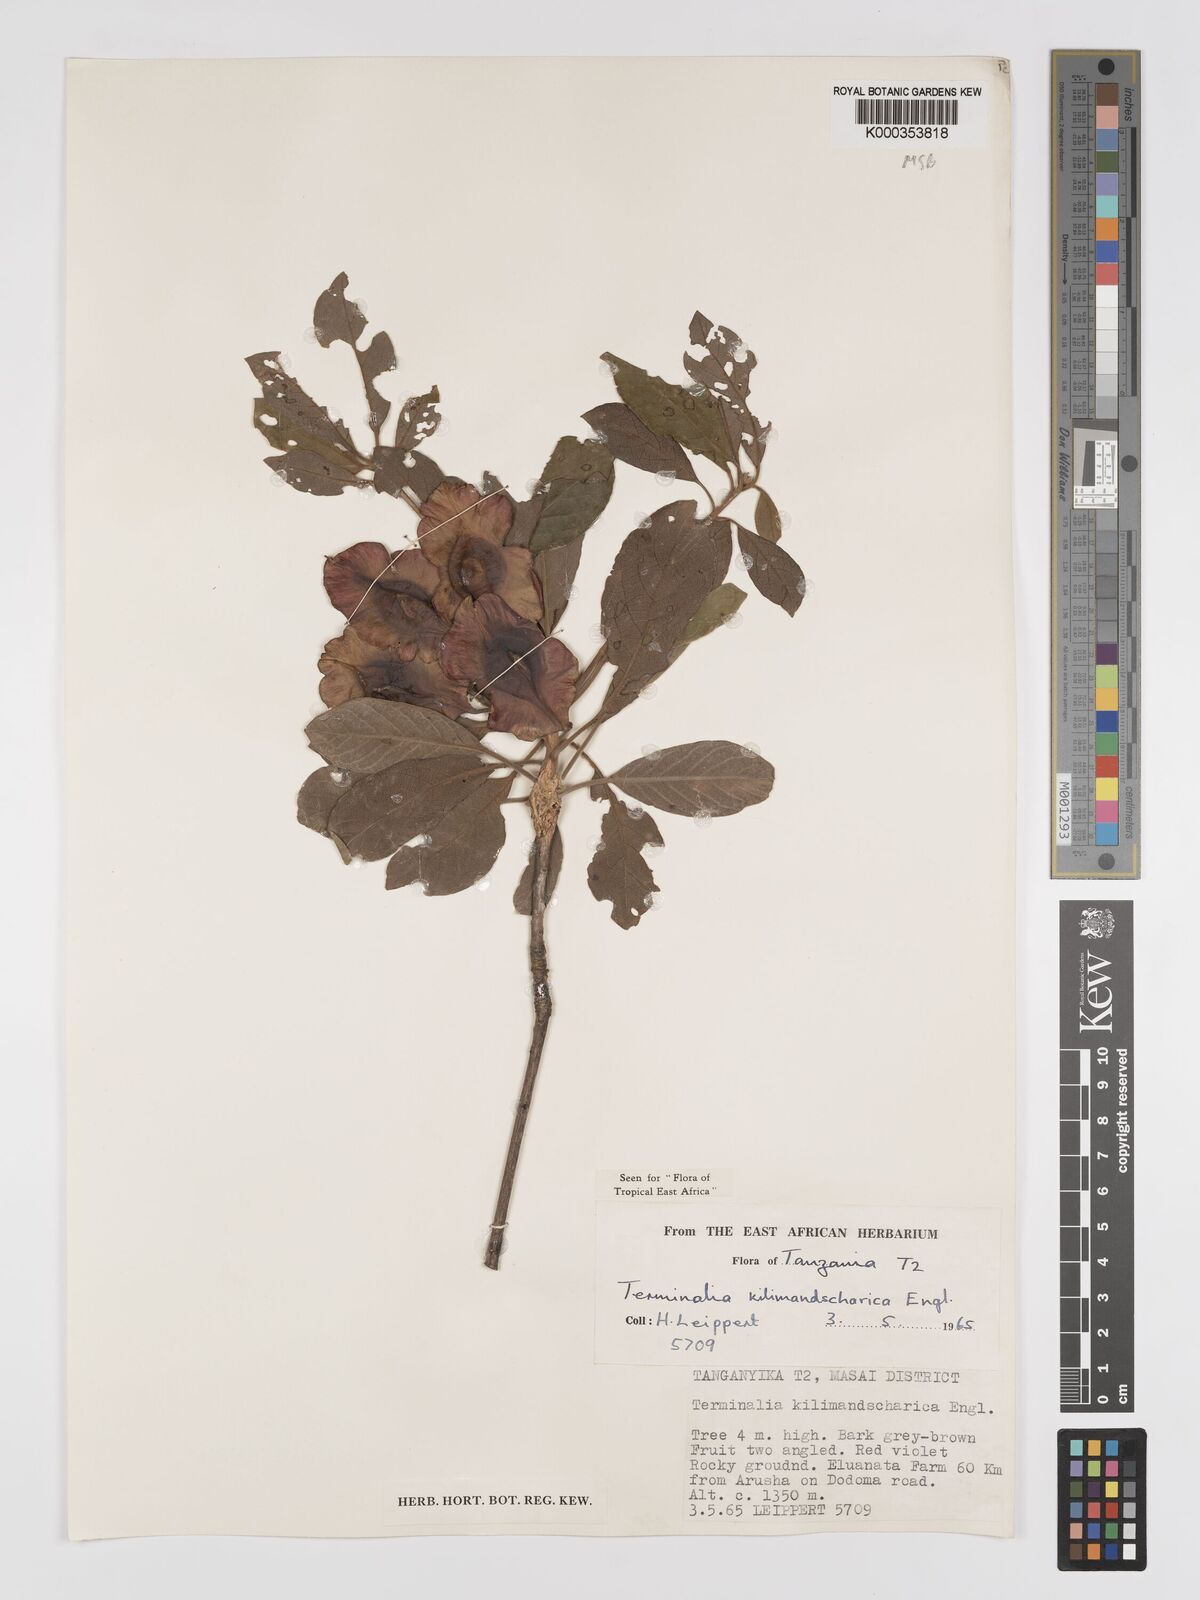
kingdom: Plantae
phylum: Tracheophyta
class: Magnoliopsida
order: Myrtales
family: Combretaceae
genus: Terminalia
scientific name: Terminalia kilimandscharica
